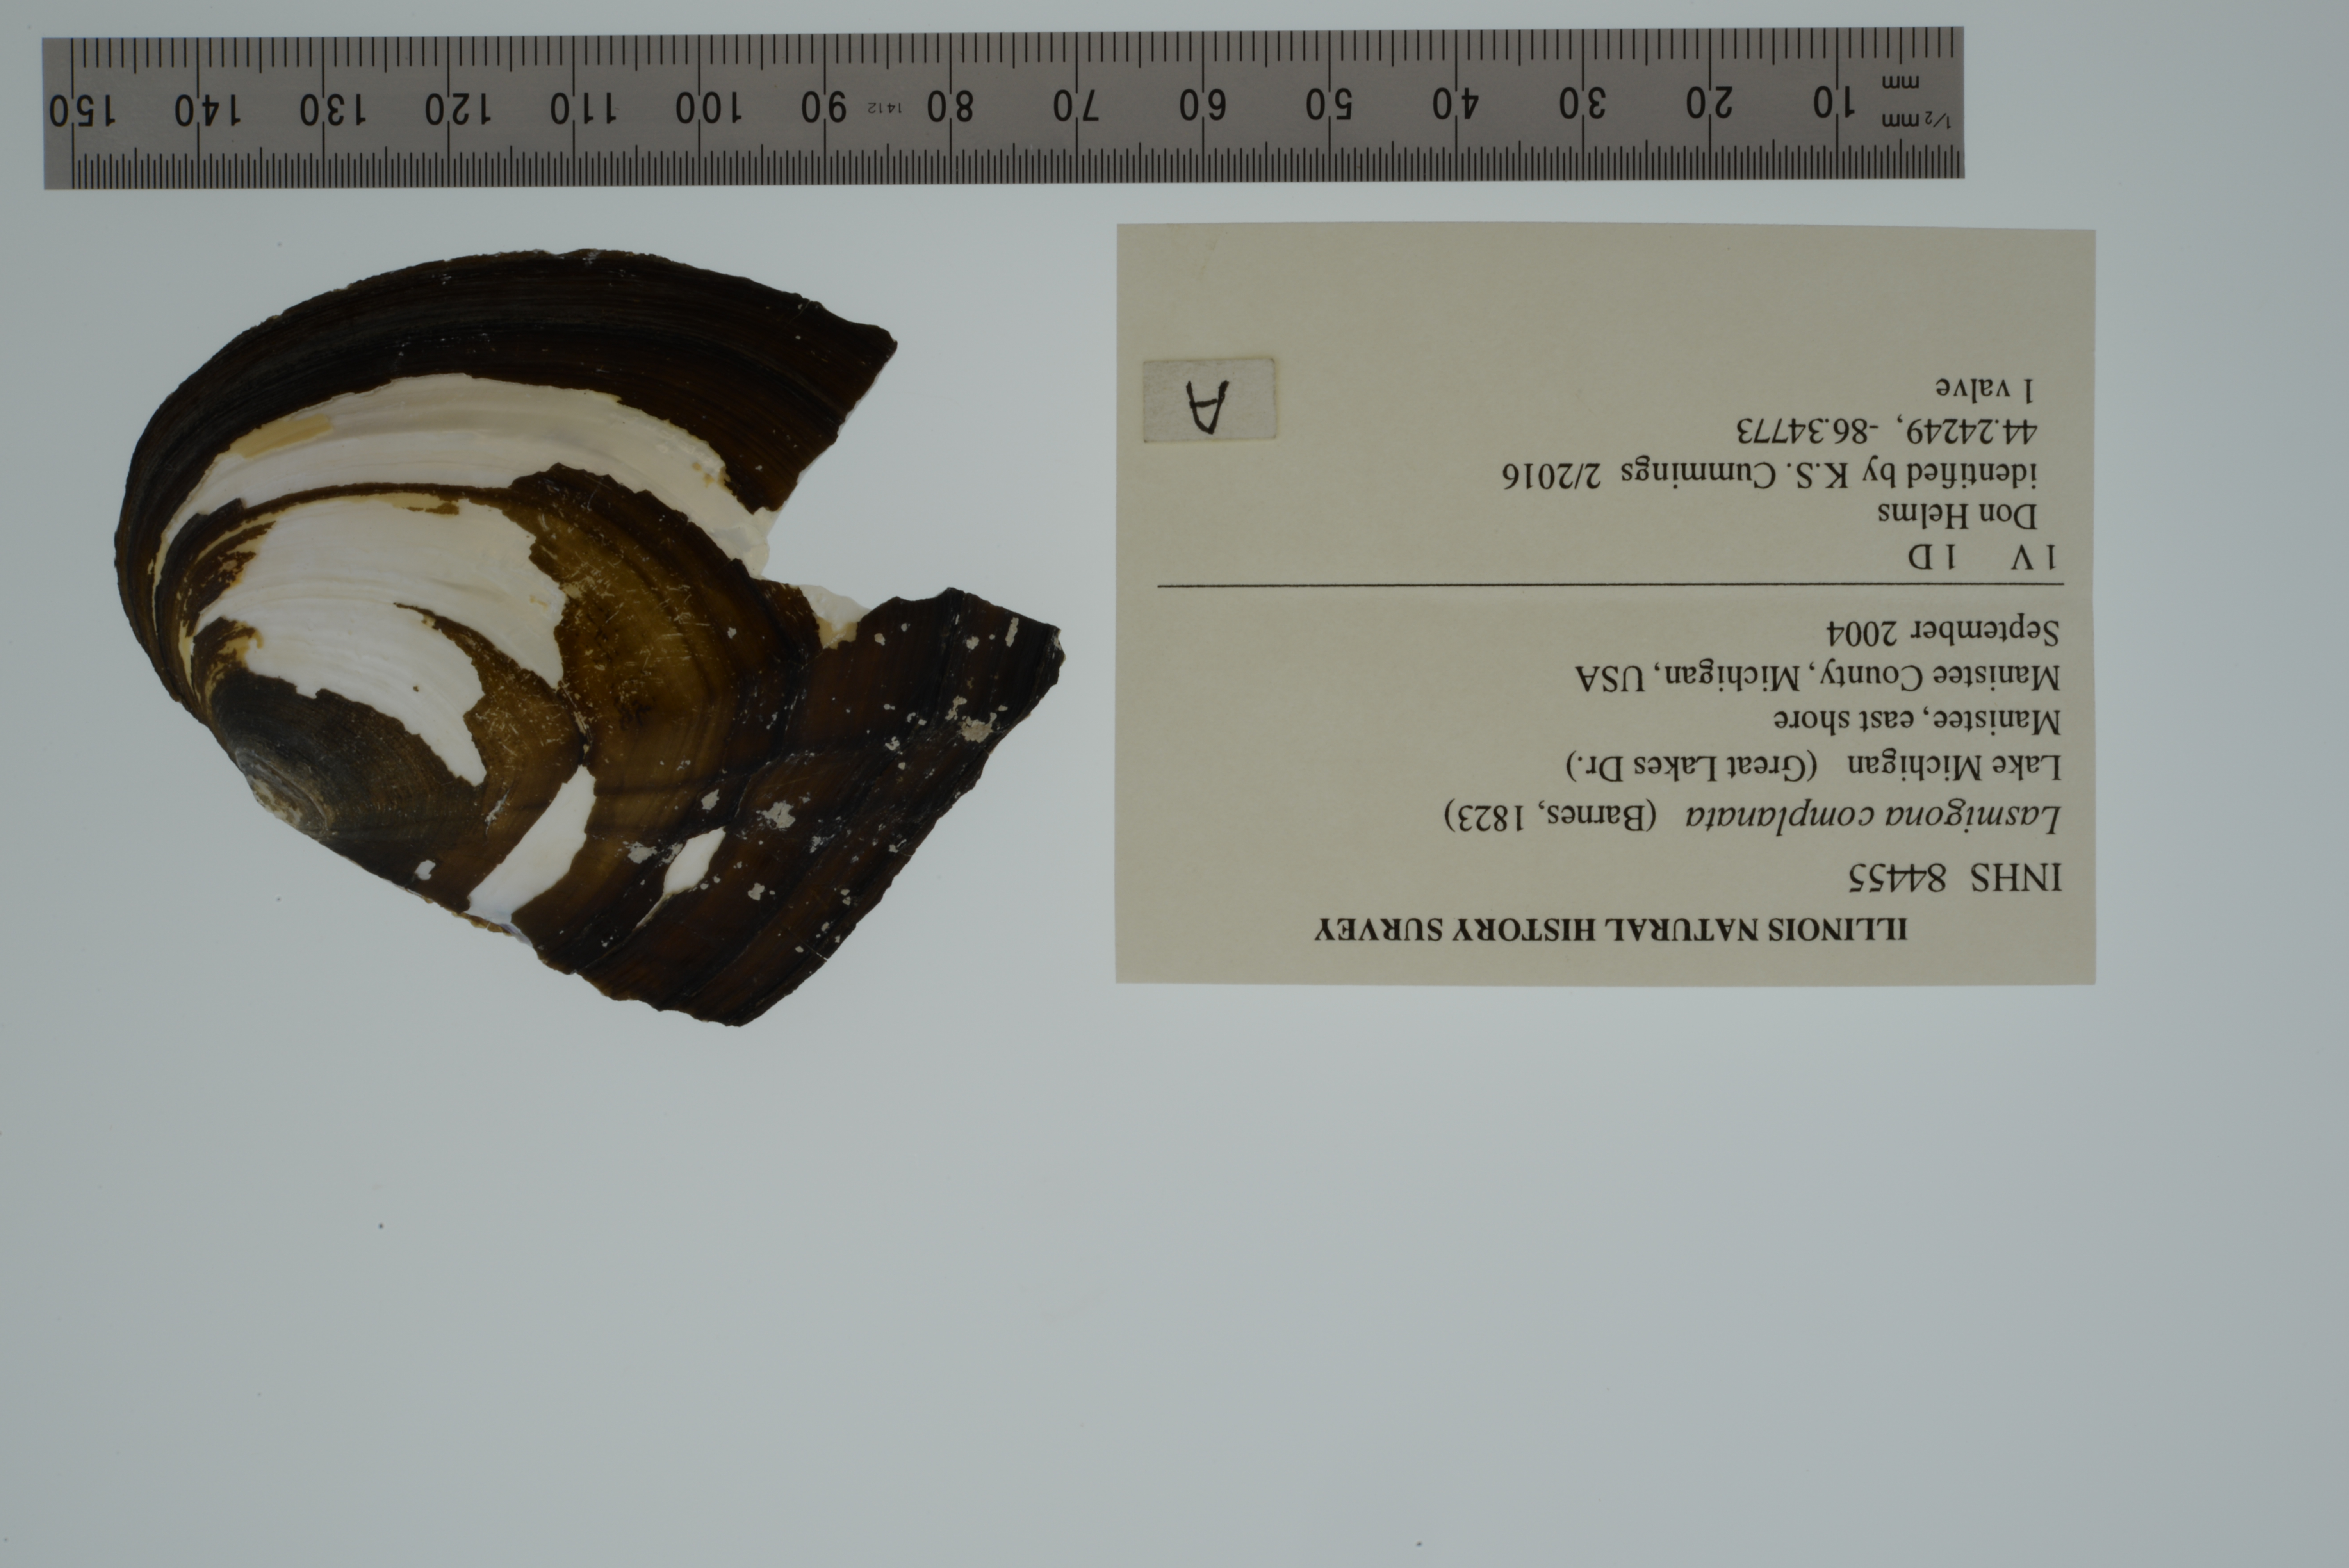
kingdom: Animalia
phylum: Mollusca
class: Bivalvia
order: Unionida
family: Unionidae
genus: Lasmigona
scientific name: Lasmigona complanata
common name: White heelsplitter
